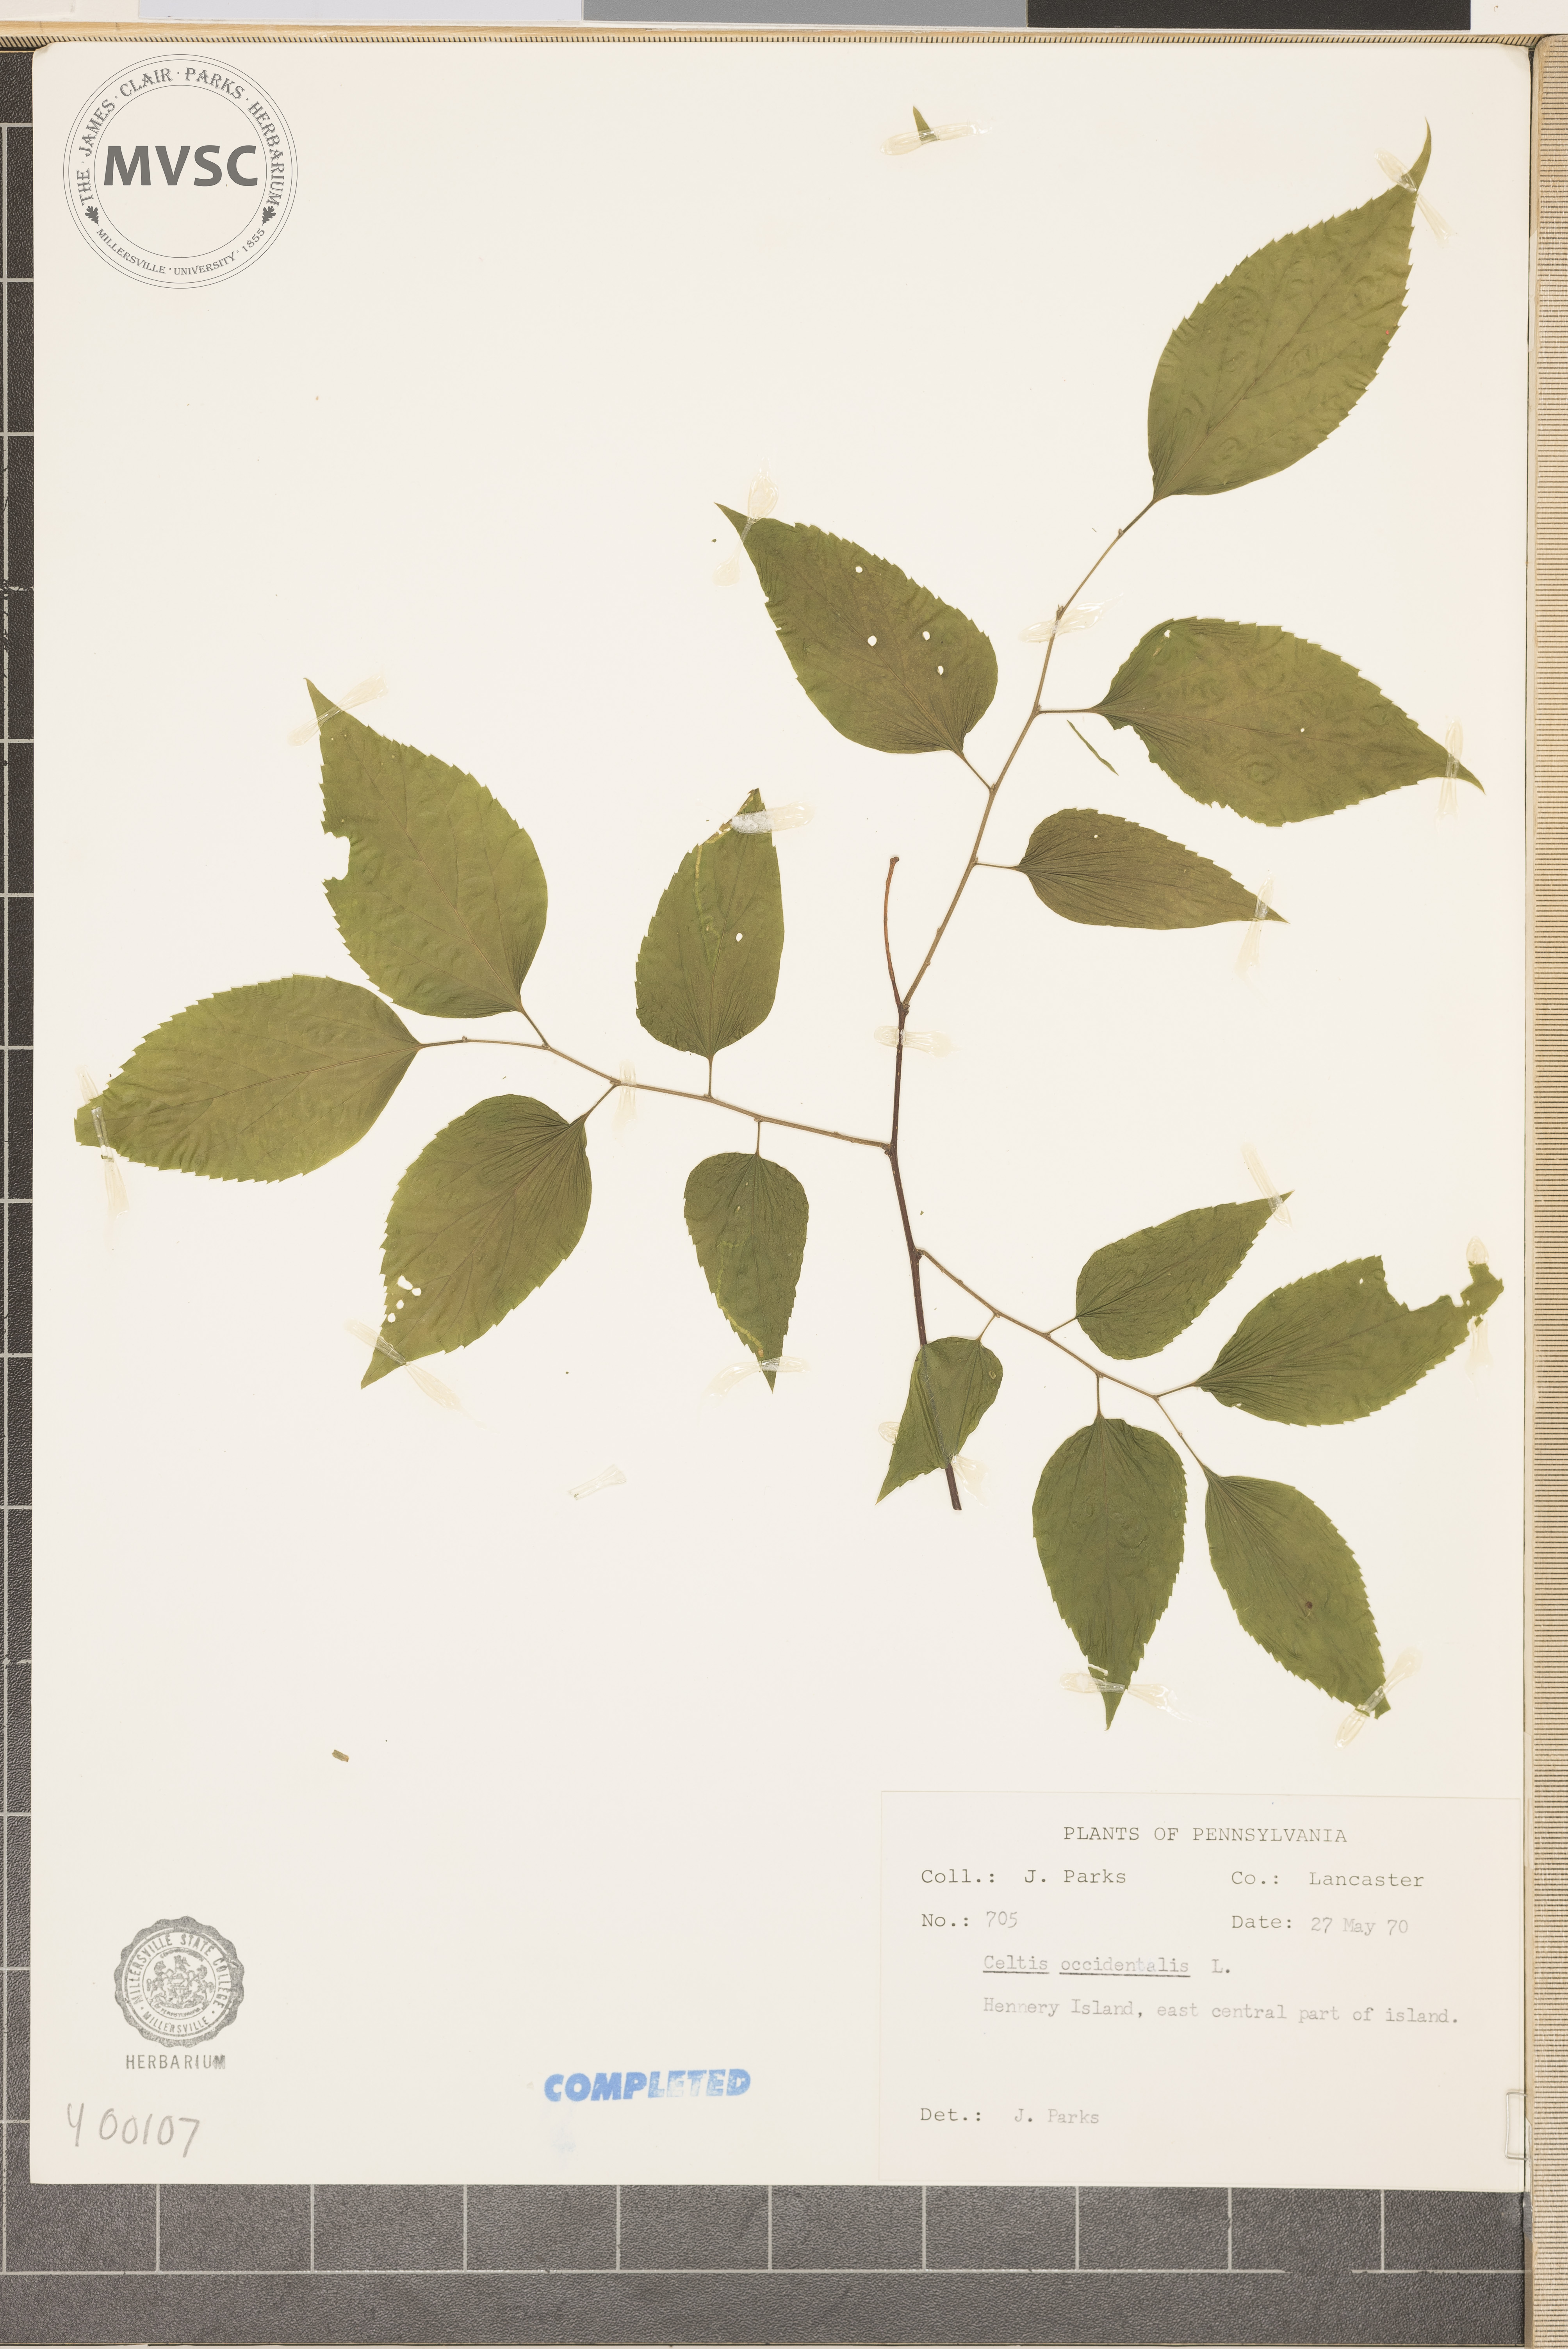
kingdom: Plantae
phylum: Tracheophyta
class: Magnoliopsida
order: Rosales
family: Cannabaceae
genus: Celtis
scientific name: Celtis occidentalis
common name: hackberry
